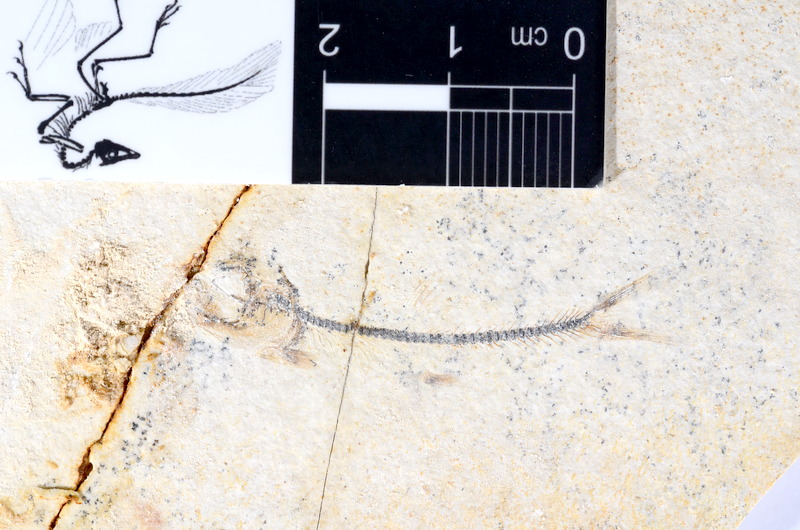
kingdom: Animalia
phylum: Chordata
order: Salmoniformes
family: Orthogonikleithridae
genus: Orthogonikleithrus
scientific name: Orthogonikleithrus hoelli
